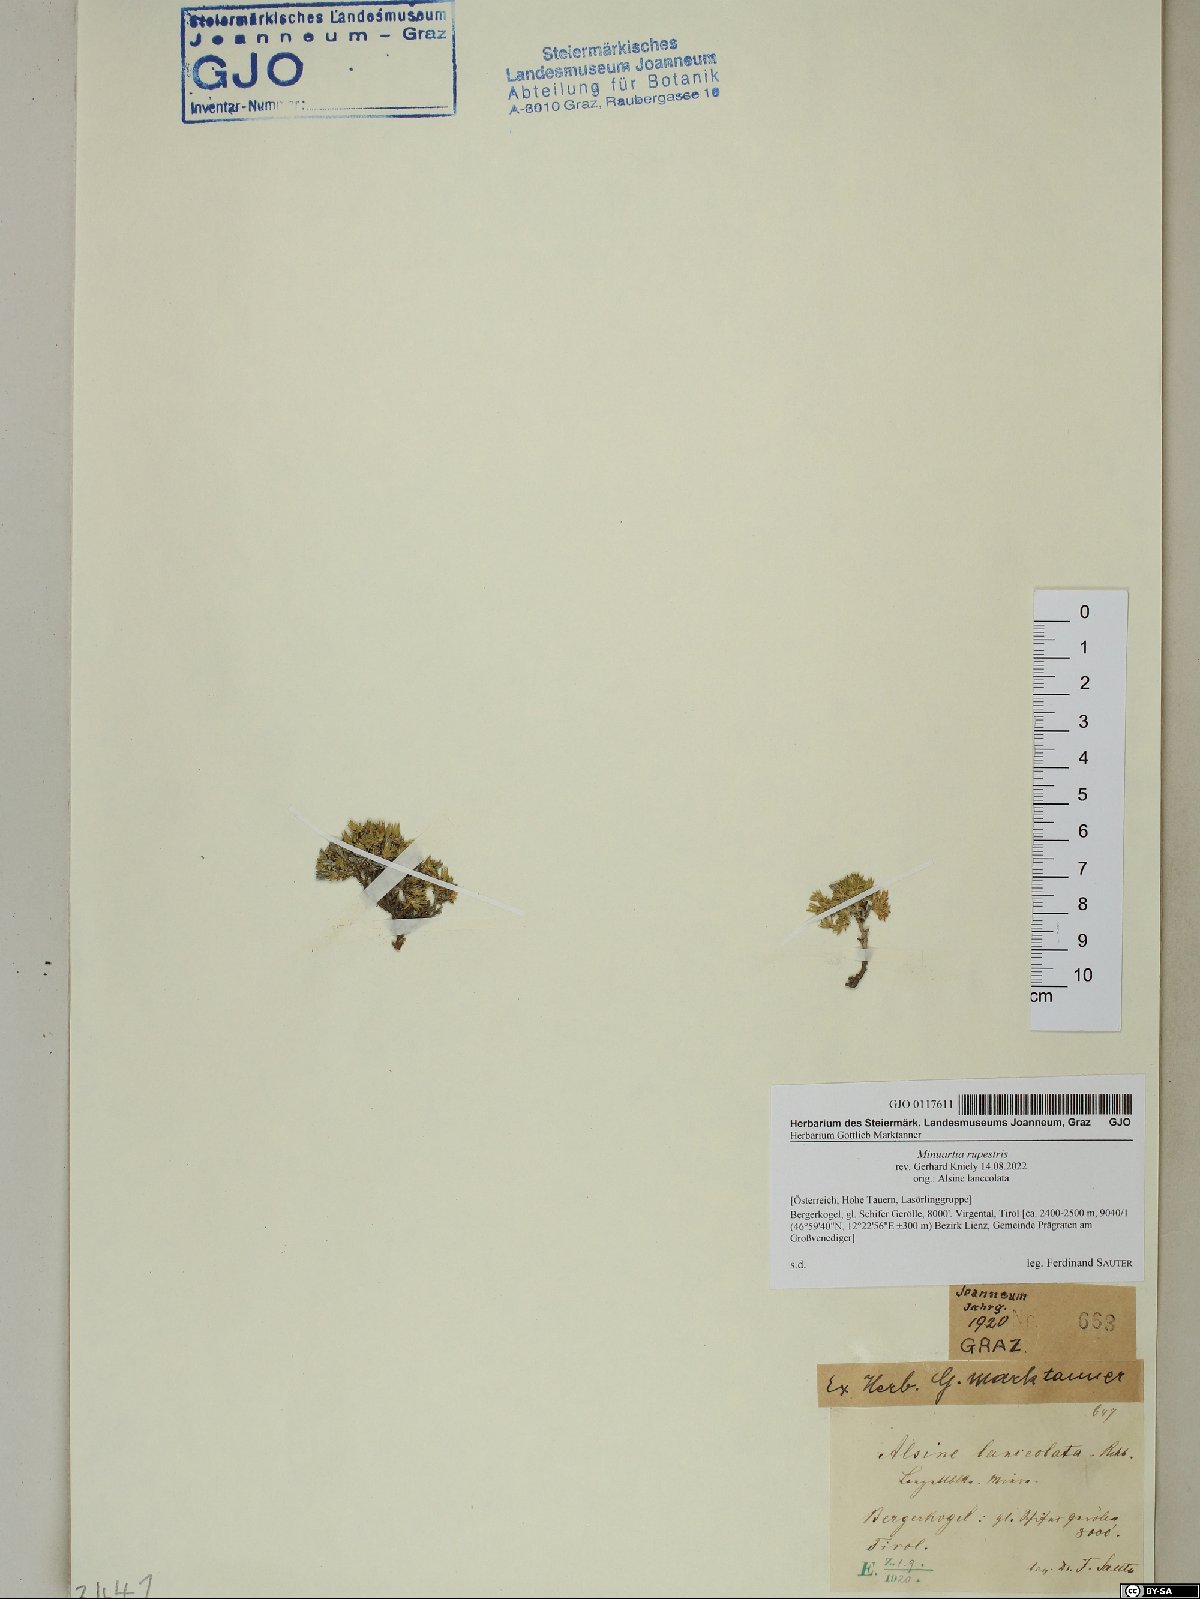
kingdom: Plantae
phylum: Tracheophyta
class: Magnoliopsida
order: Caryophyllales
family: Caryophyllaceae
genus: Facchinia
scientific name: Facchinia rupestris
